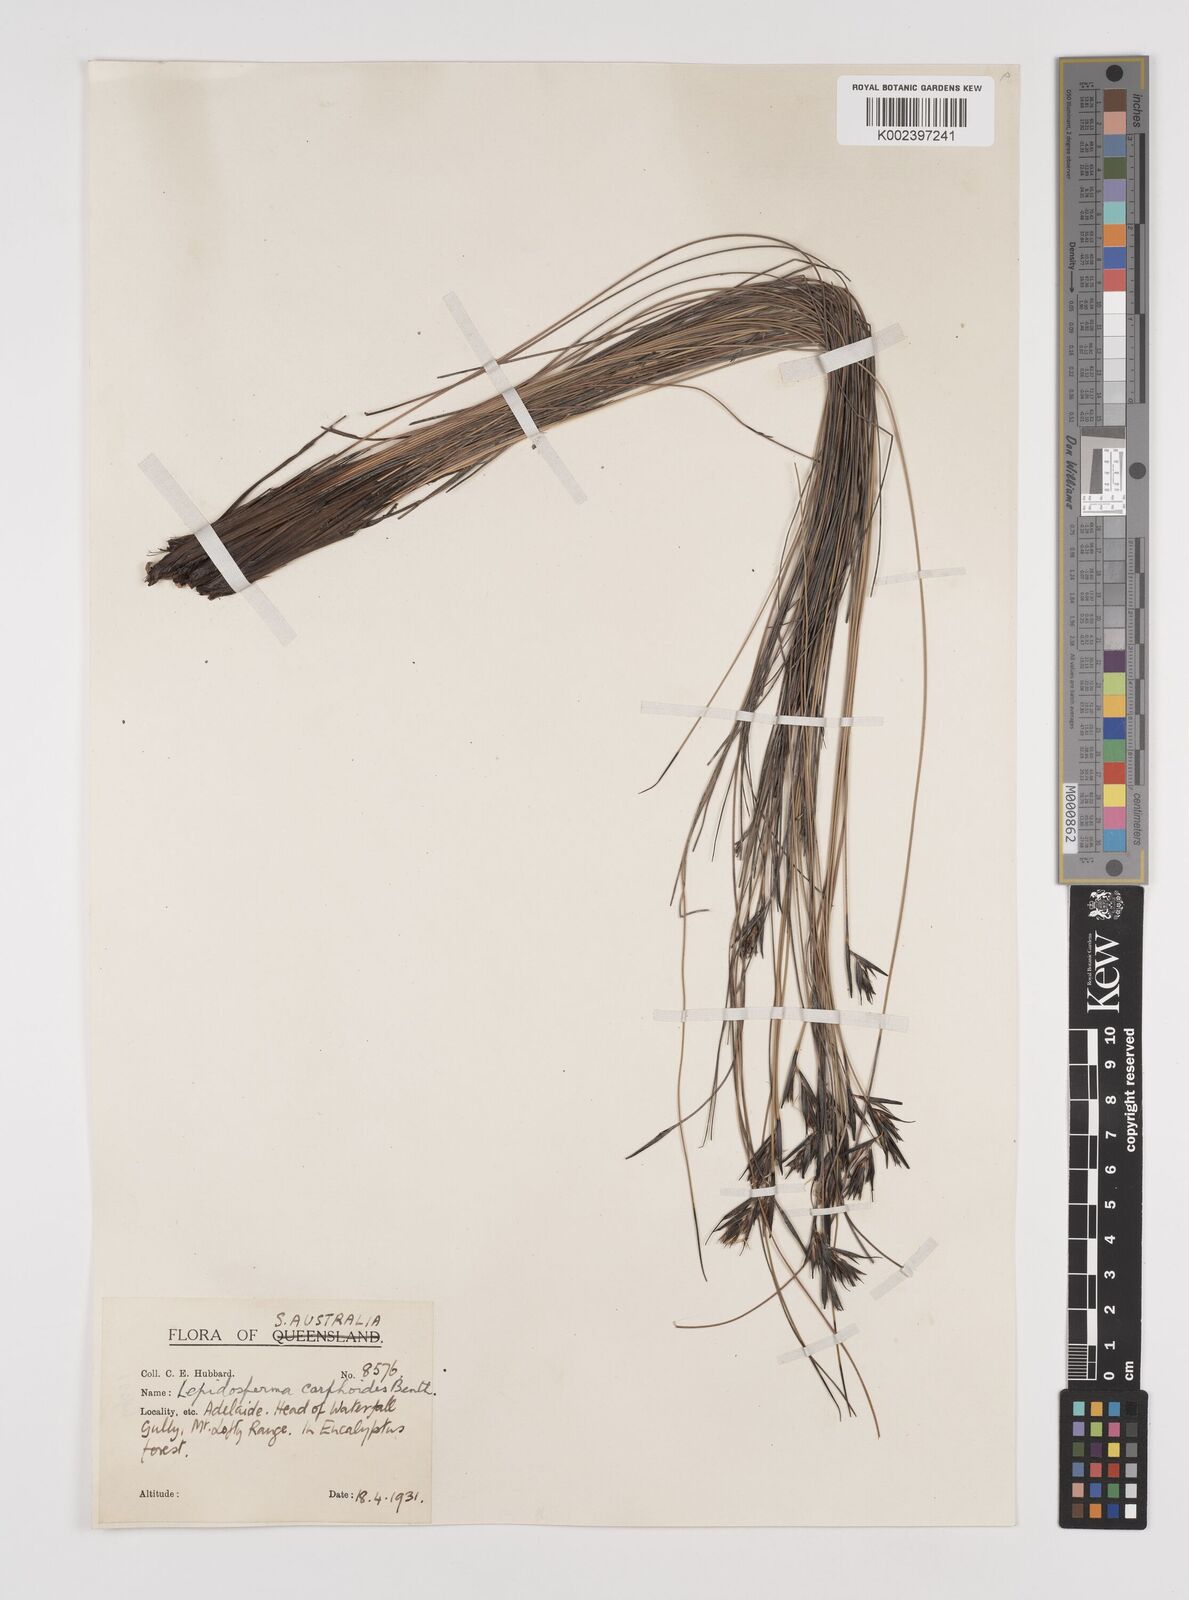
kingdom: Plantae
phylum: Tracheophyta
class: Liliopsida
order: Poales
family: Cyperaceae
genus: Lepidosperma
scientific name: Lepidosperma carphoides
